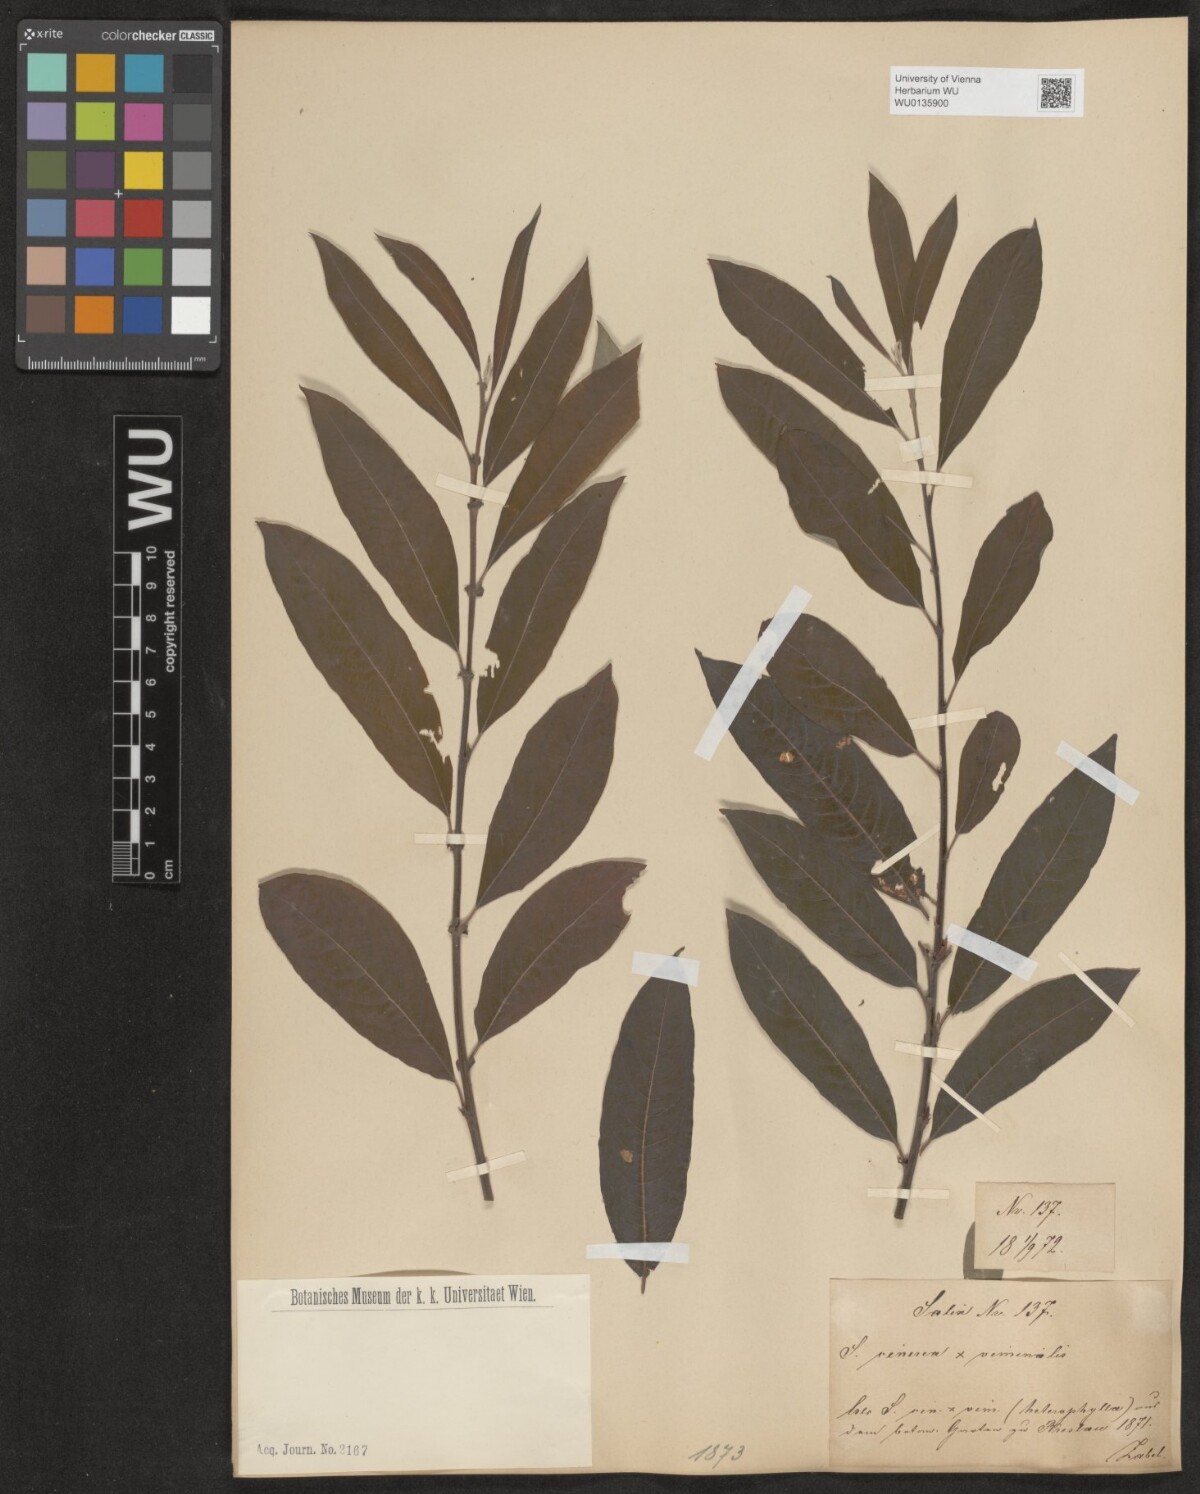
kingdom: Plantae
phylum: Tracheophyta
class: Magnoliopsida
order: Malpighiales
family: Salicaceae
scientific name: Salicaceae
